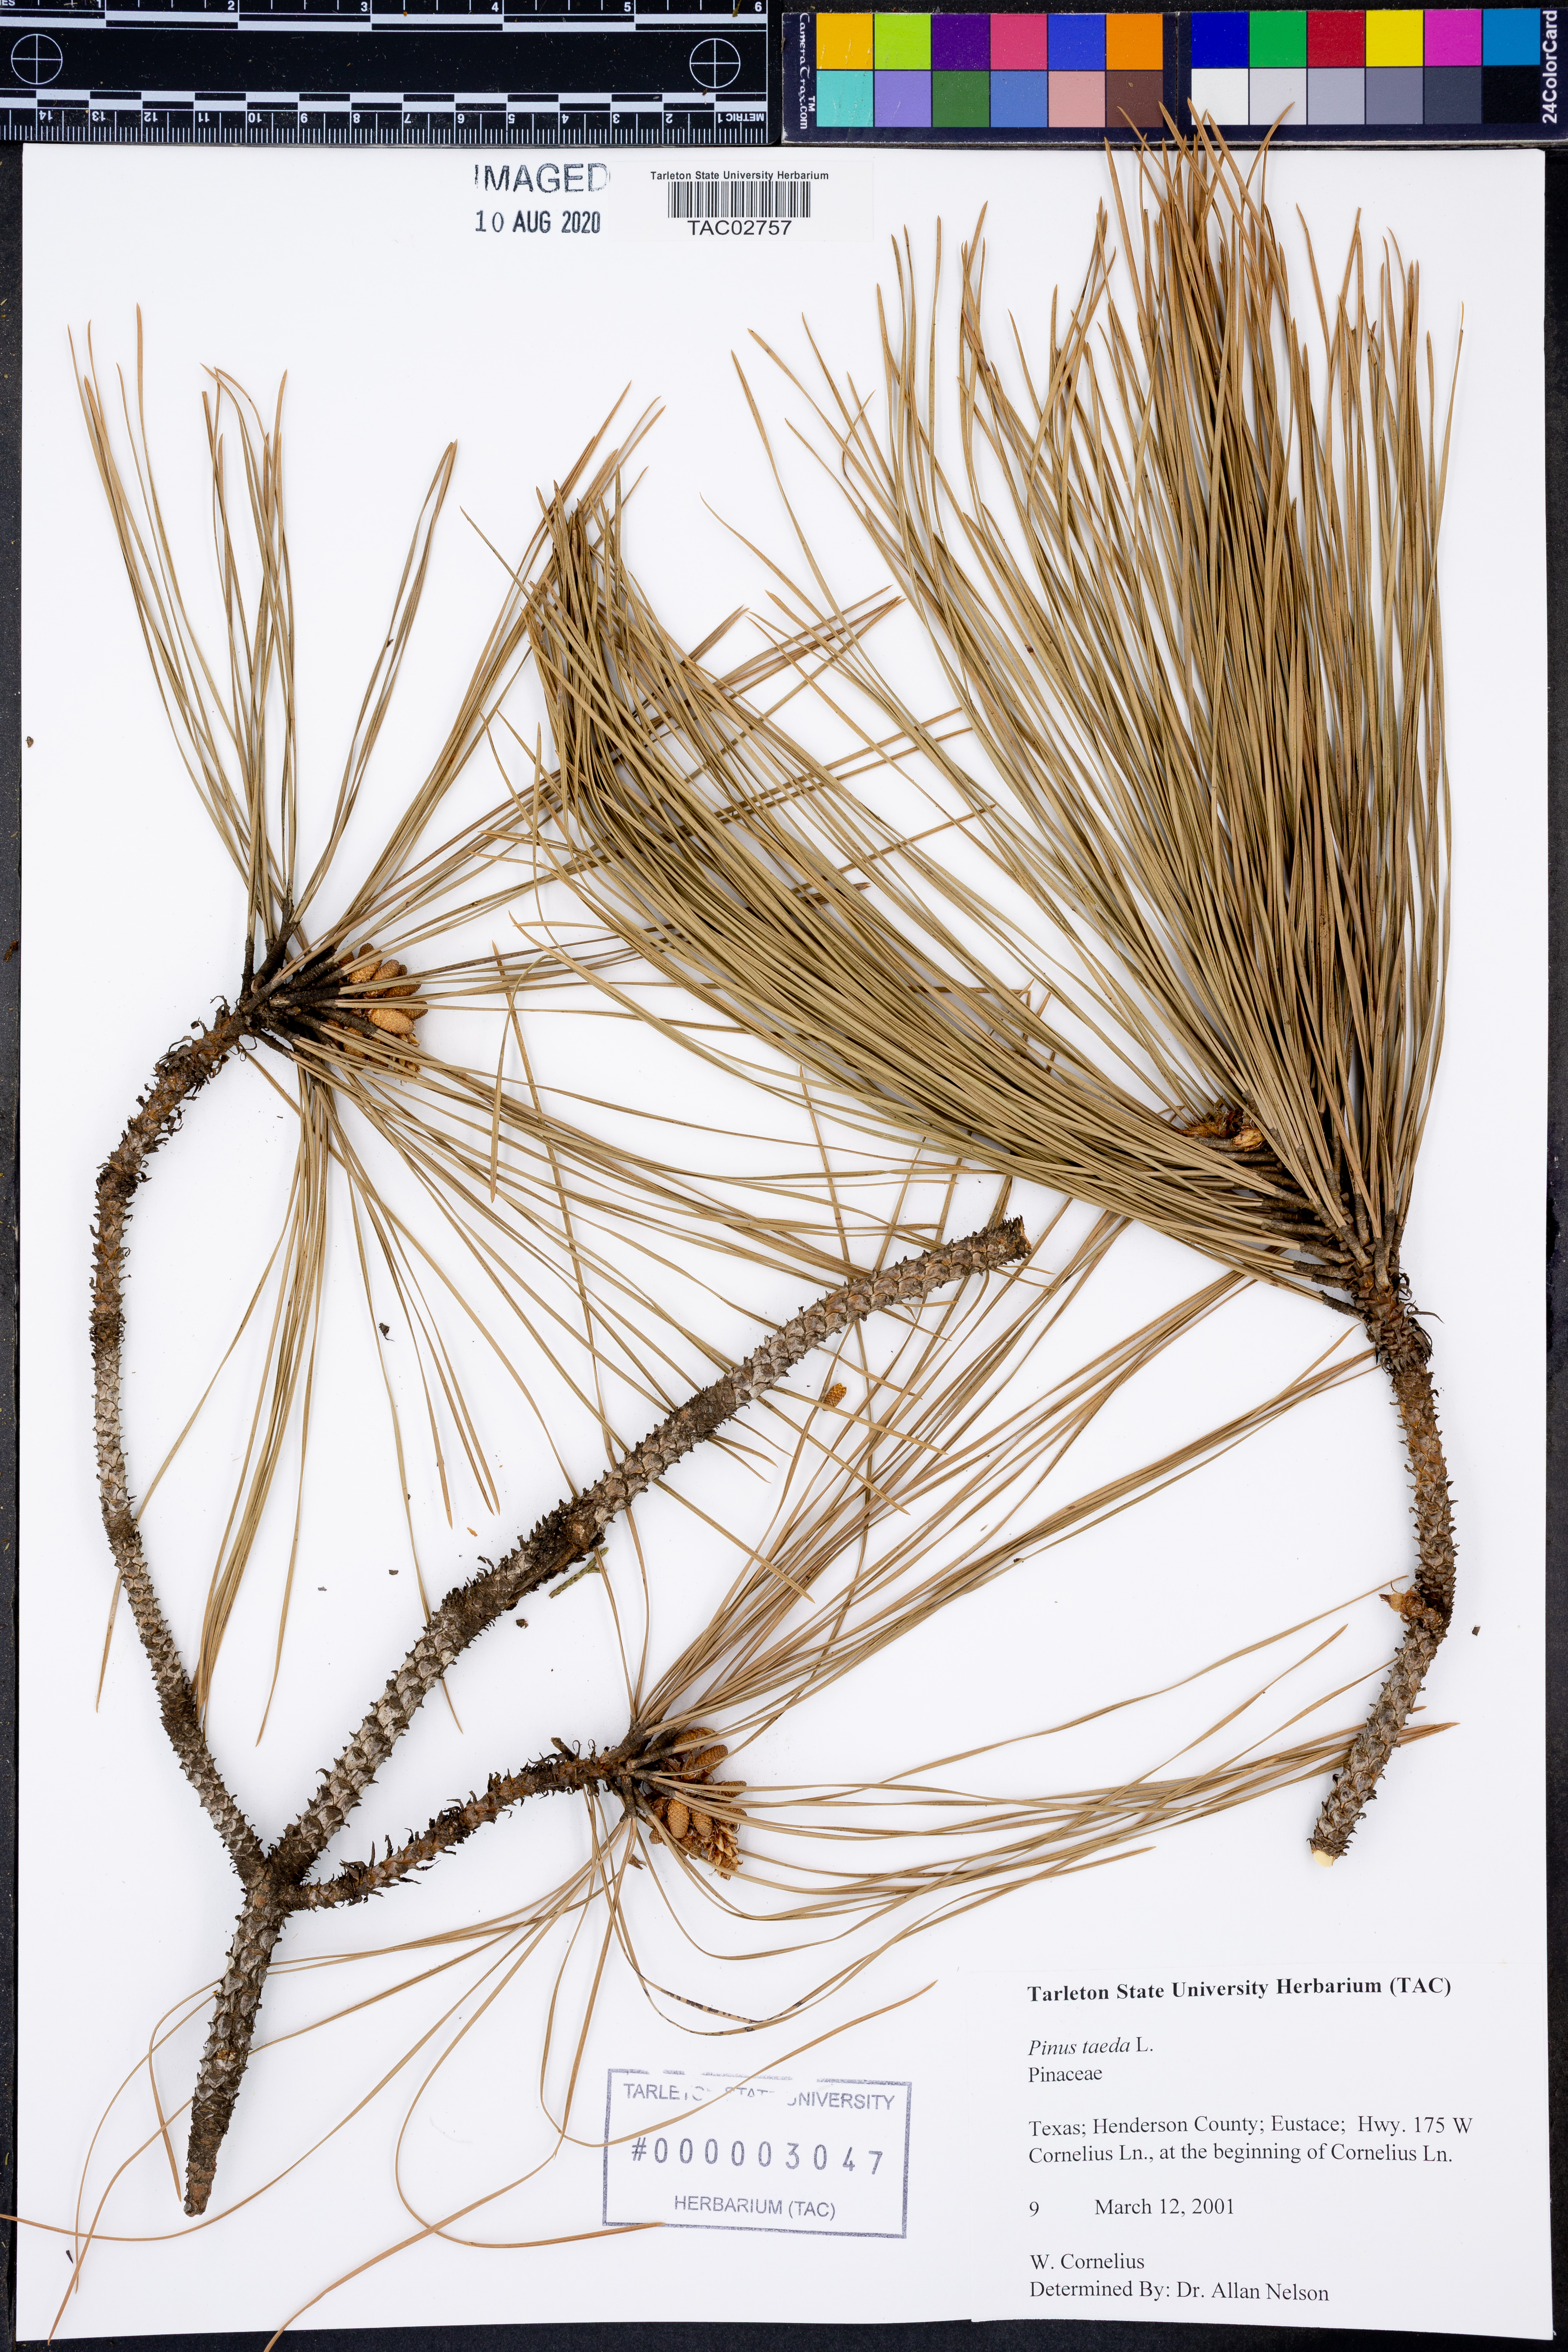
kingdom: Plantae
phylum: Tracheophyta
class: Pinopsida
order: Pinales
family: Pinaceae
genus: Pinus
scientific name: Pinus taeda
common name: Loblolly pine
